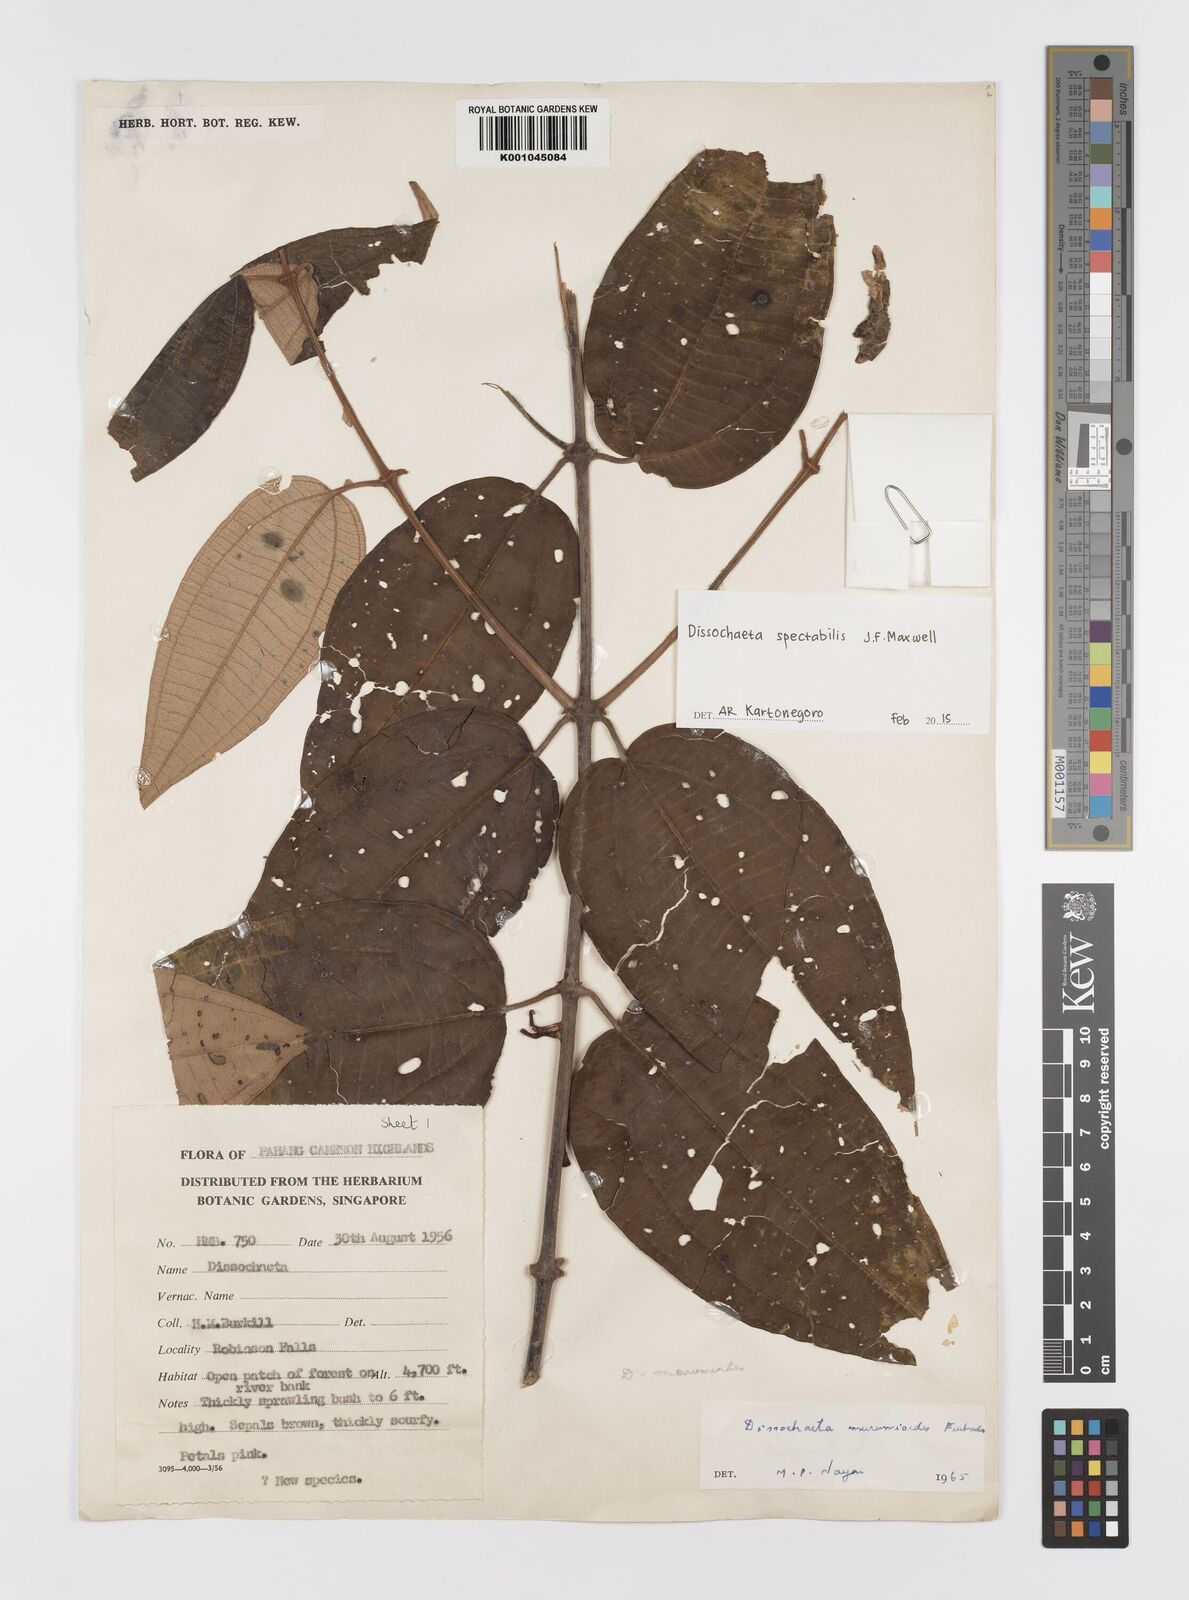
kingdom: Plantae
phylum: Tracheophyta
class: Magnoliopsida
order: Myrtales
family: Melastomataceae
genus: Dissochaeta
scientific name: Dissochaeta spectabilis
